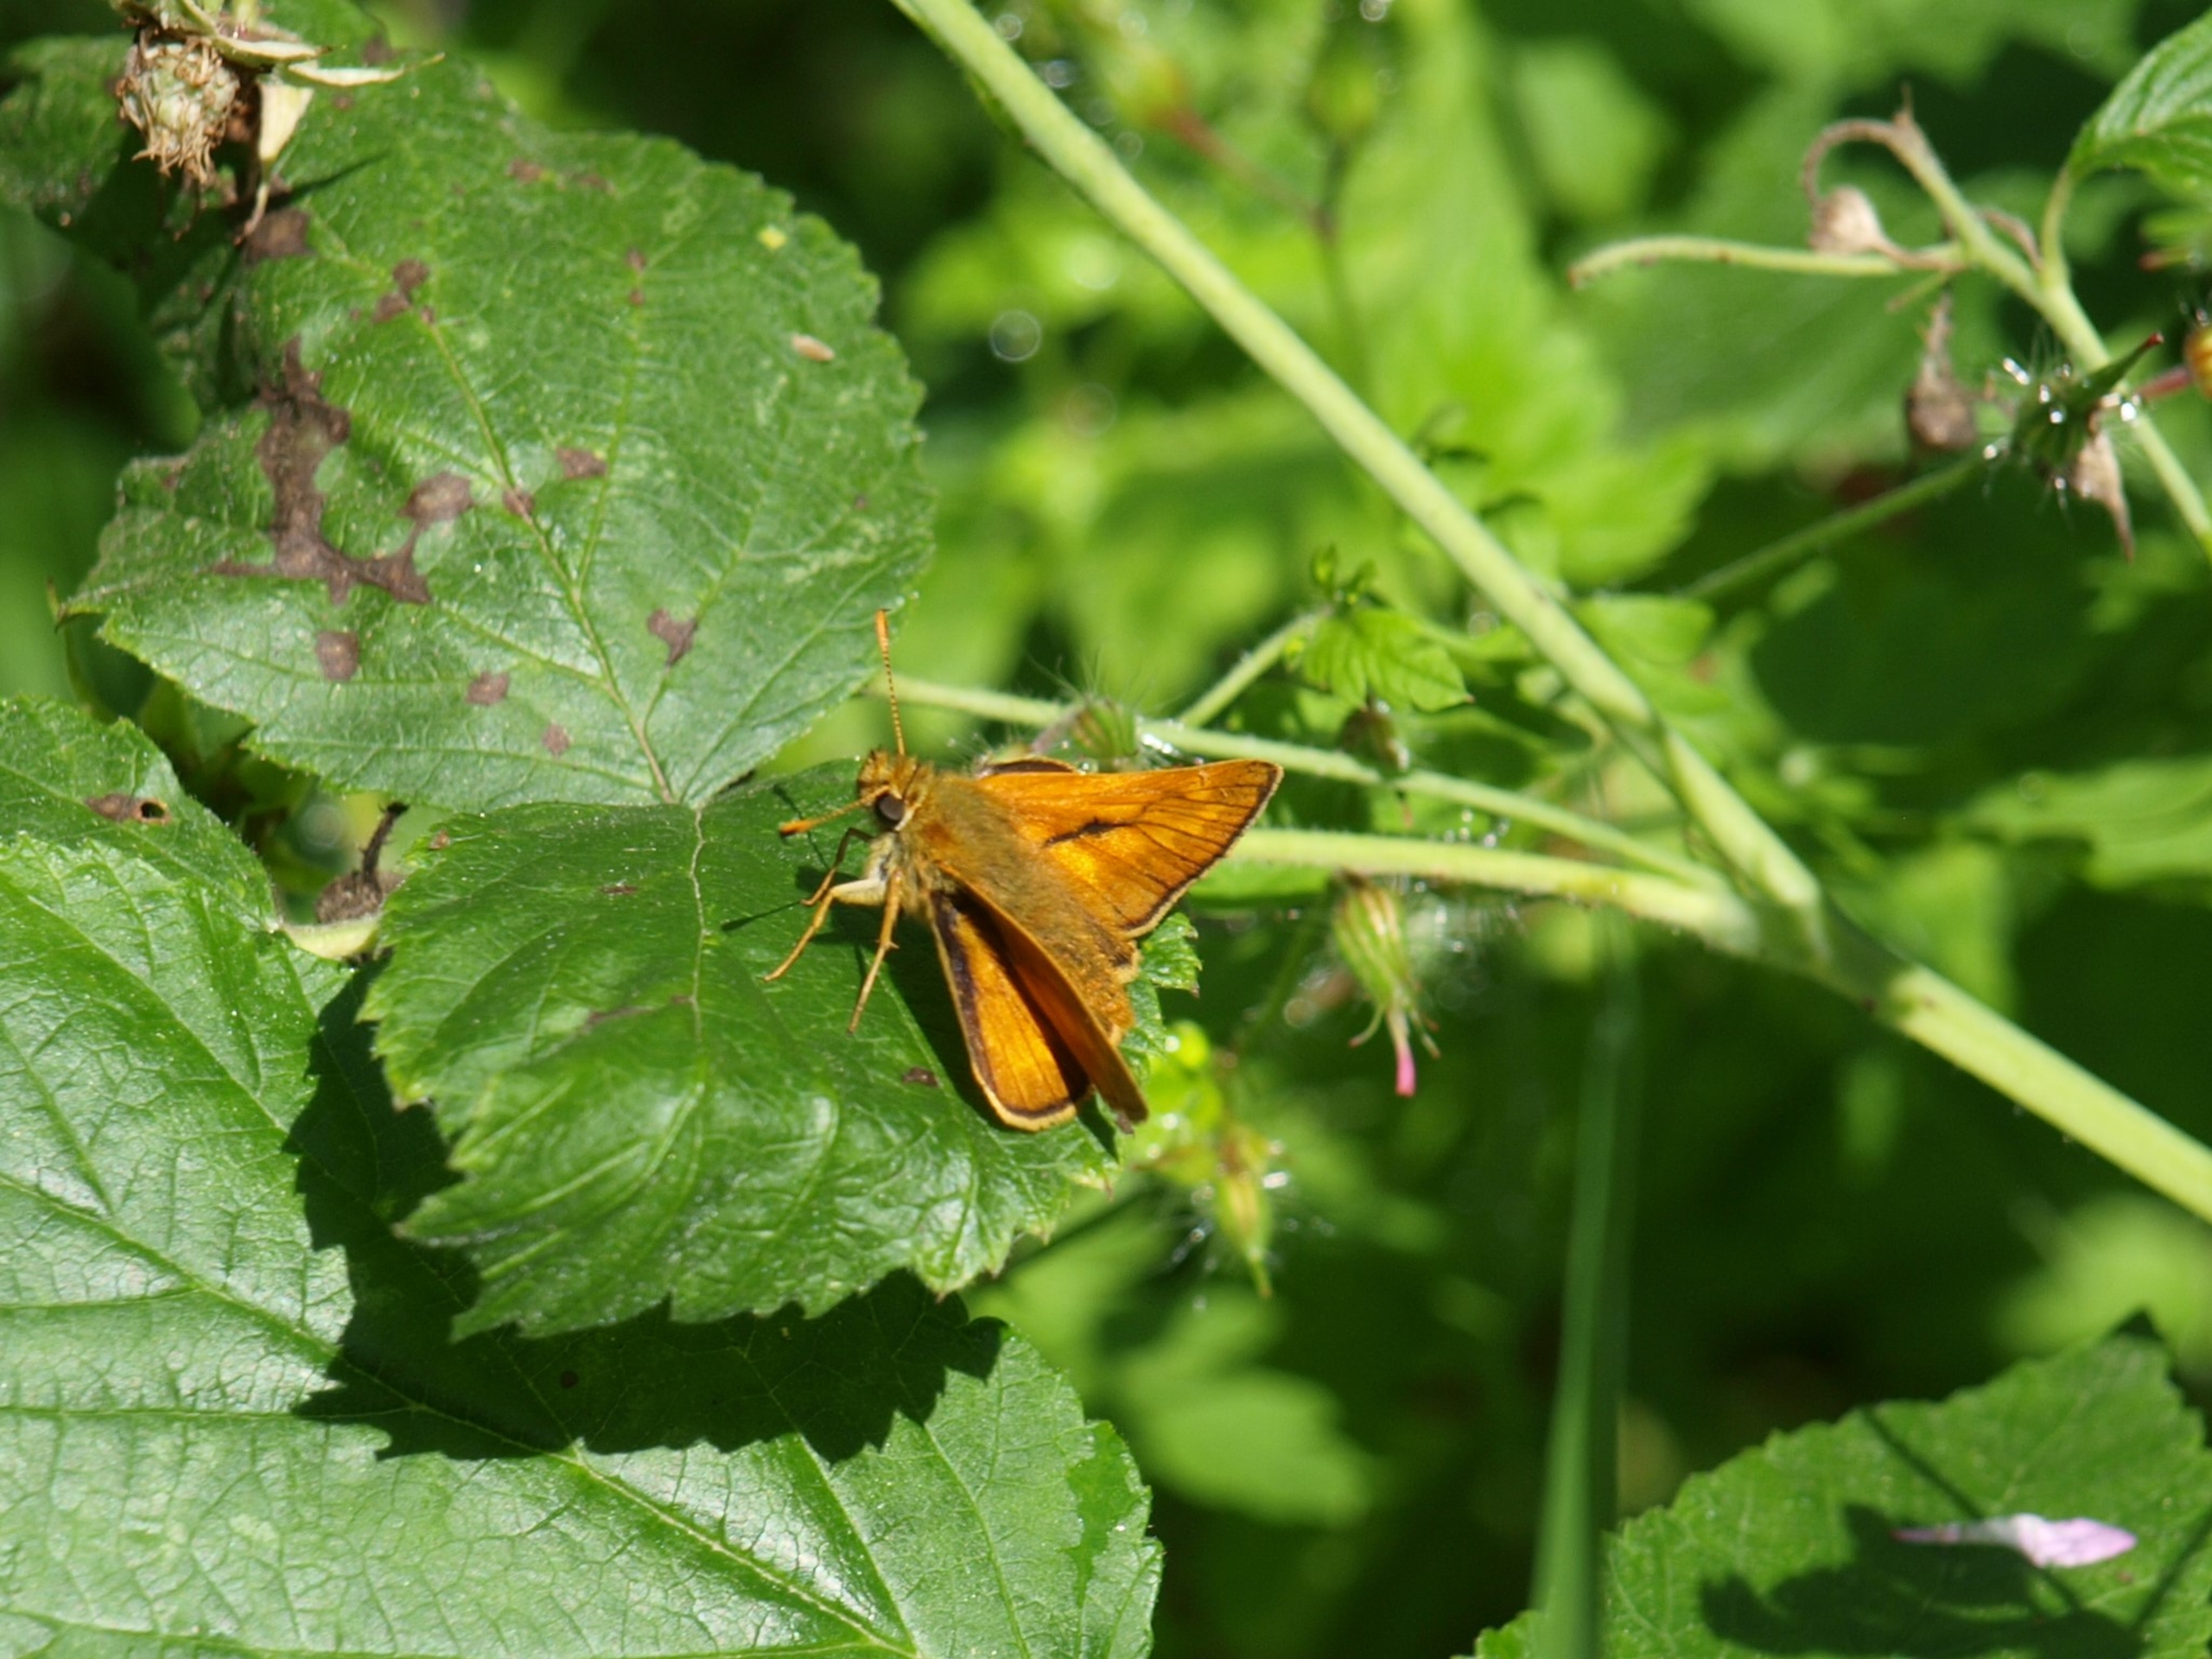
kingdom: Animalia
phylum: Arthropoda
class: Insecta
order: Lepidoptera
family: Hesperiidae
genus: Ochlodes
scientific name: Ochlodes venata
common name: Stor bredpande
